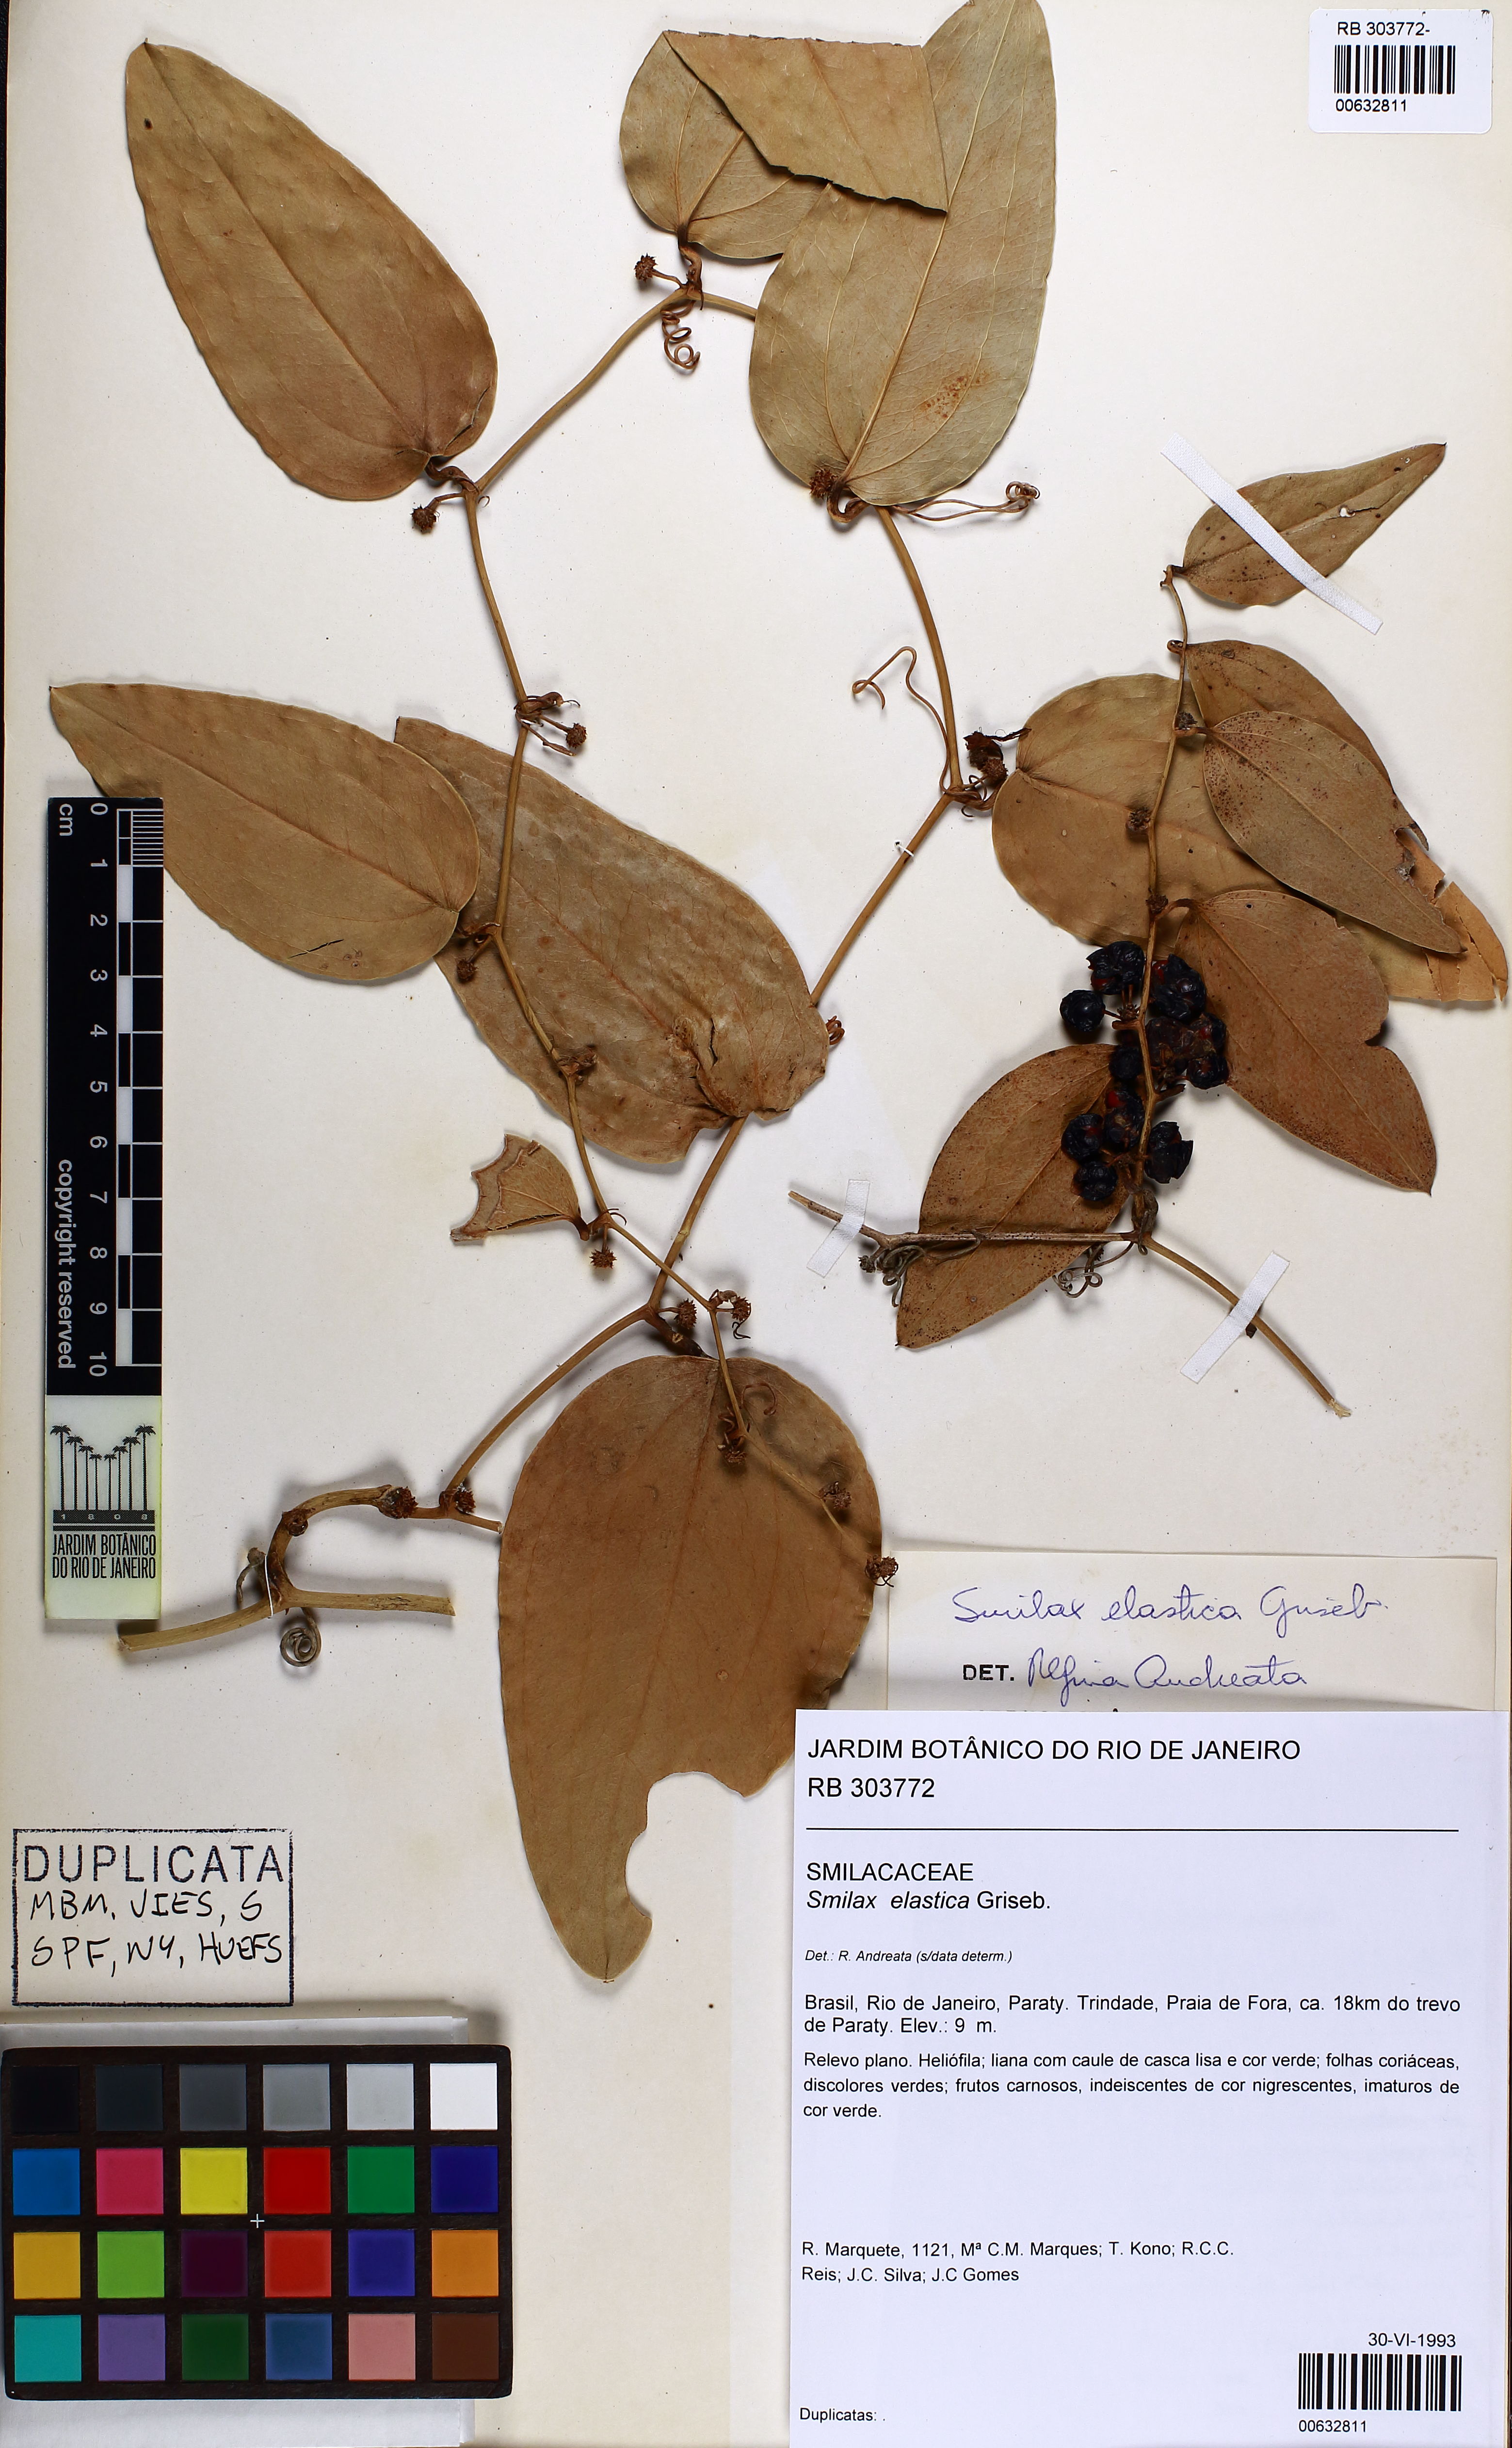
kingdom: Plantae
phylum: Tracheophyta
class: Liliopsida
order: Liliales
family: Smilacaceae
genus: Smilax
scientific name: Smilax elastica
